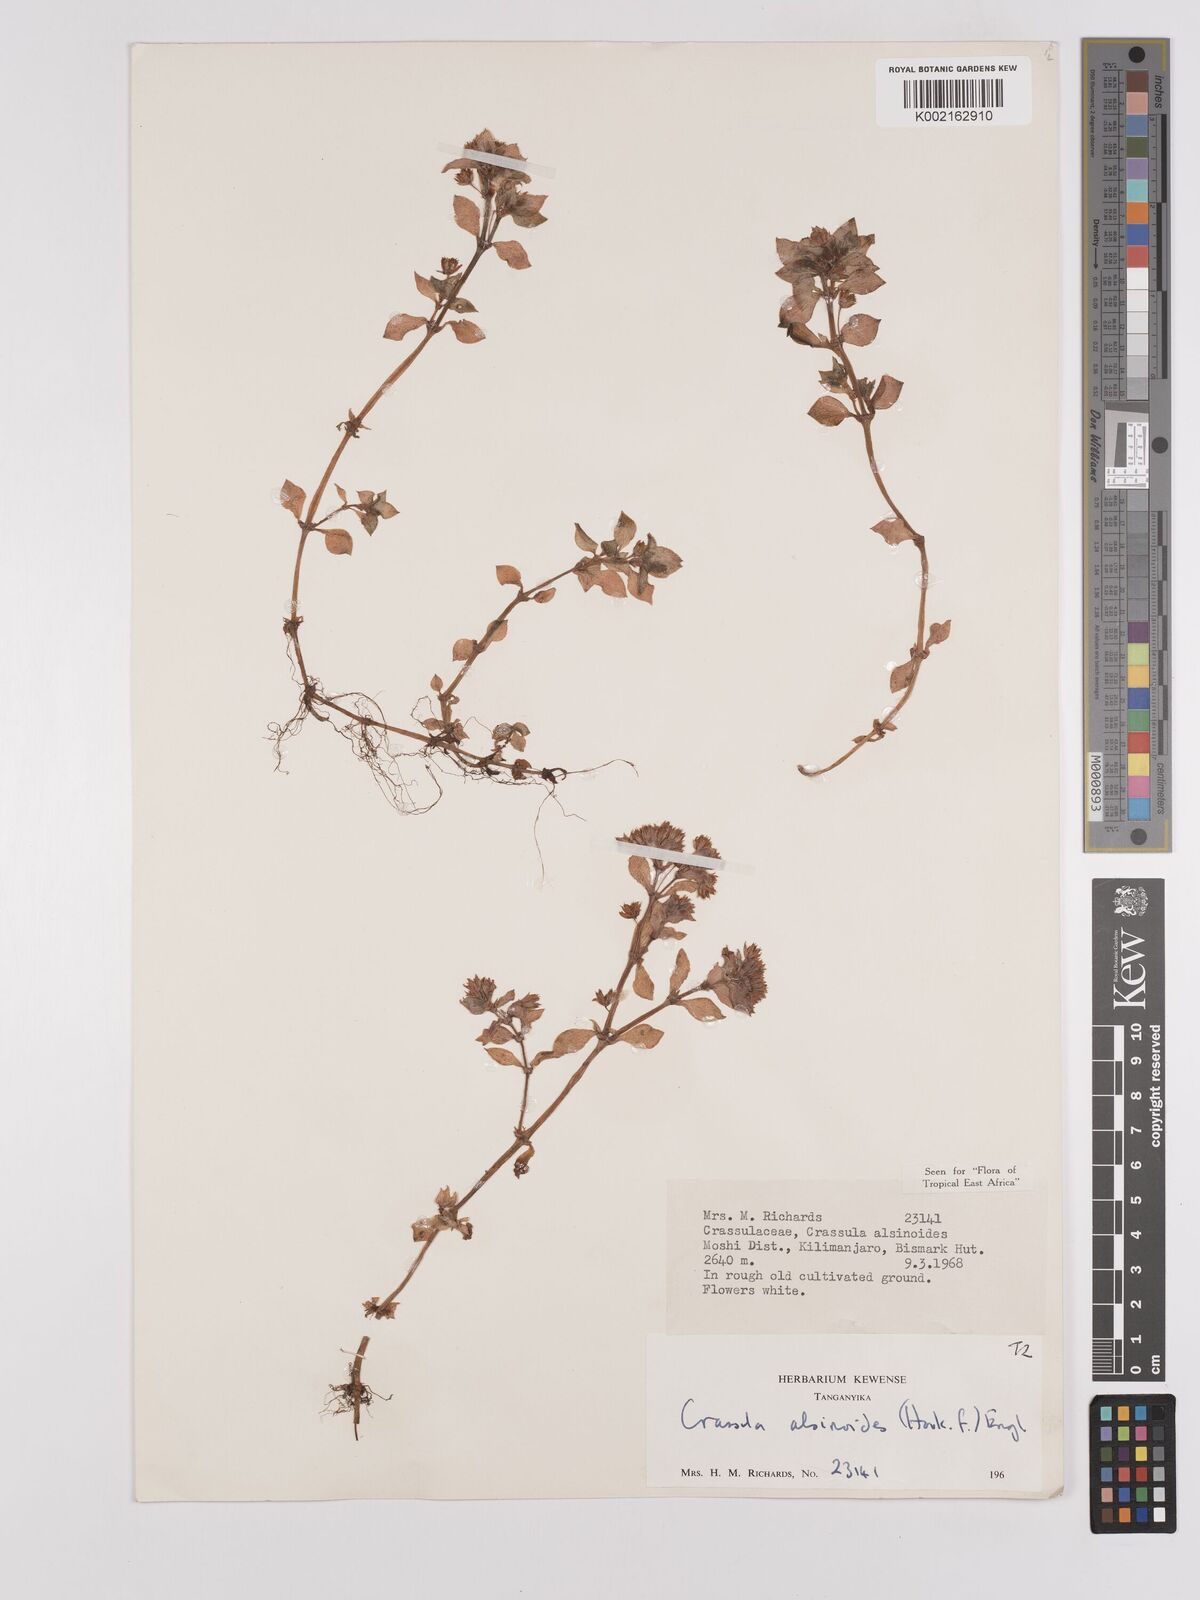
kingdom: Plantae
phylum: Tracheophyta
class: Magnoliopsida
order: Saxifragales
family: Crassulaceae
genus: Crassula
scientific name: Crassula alsinoides
